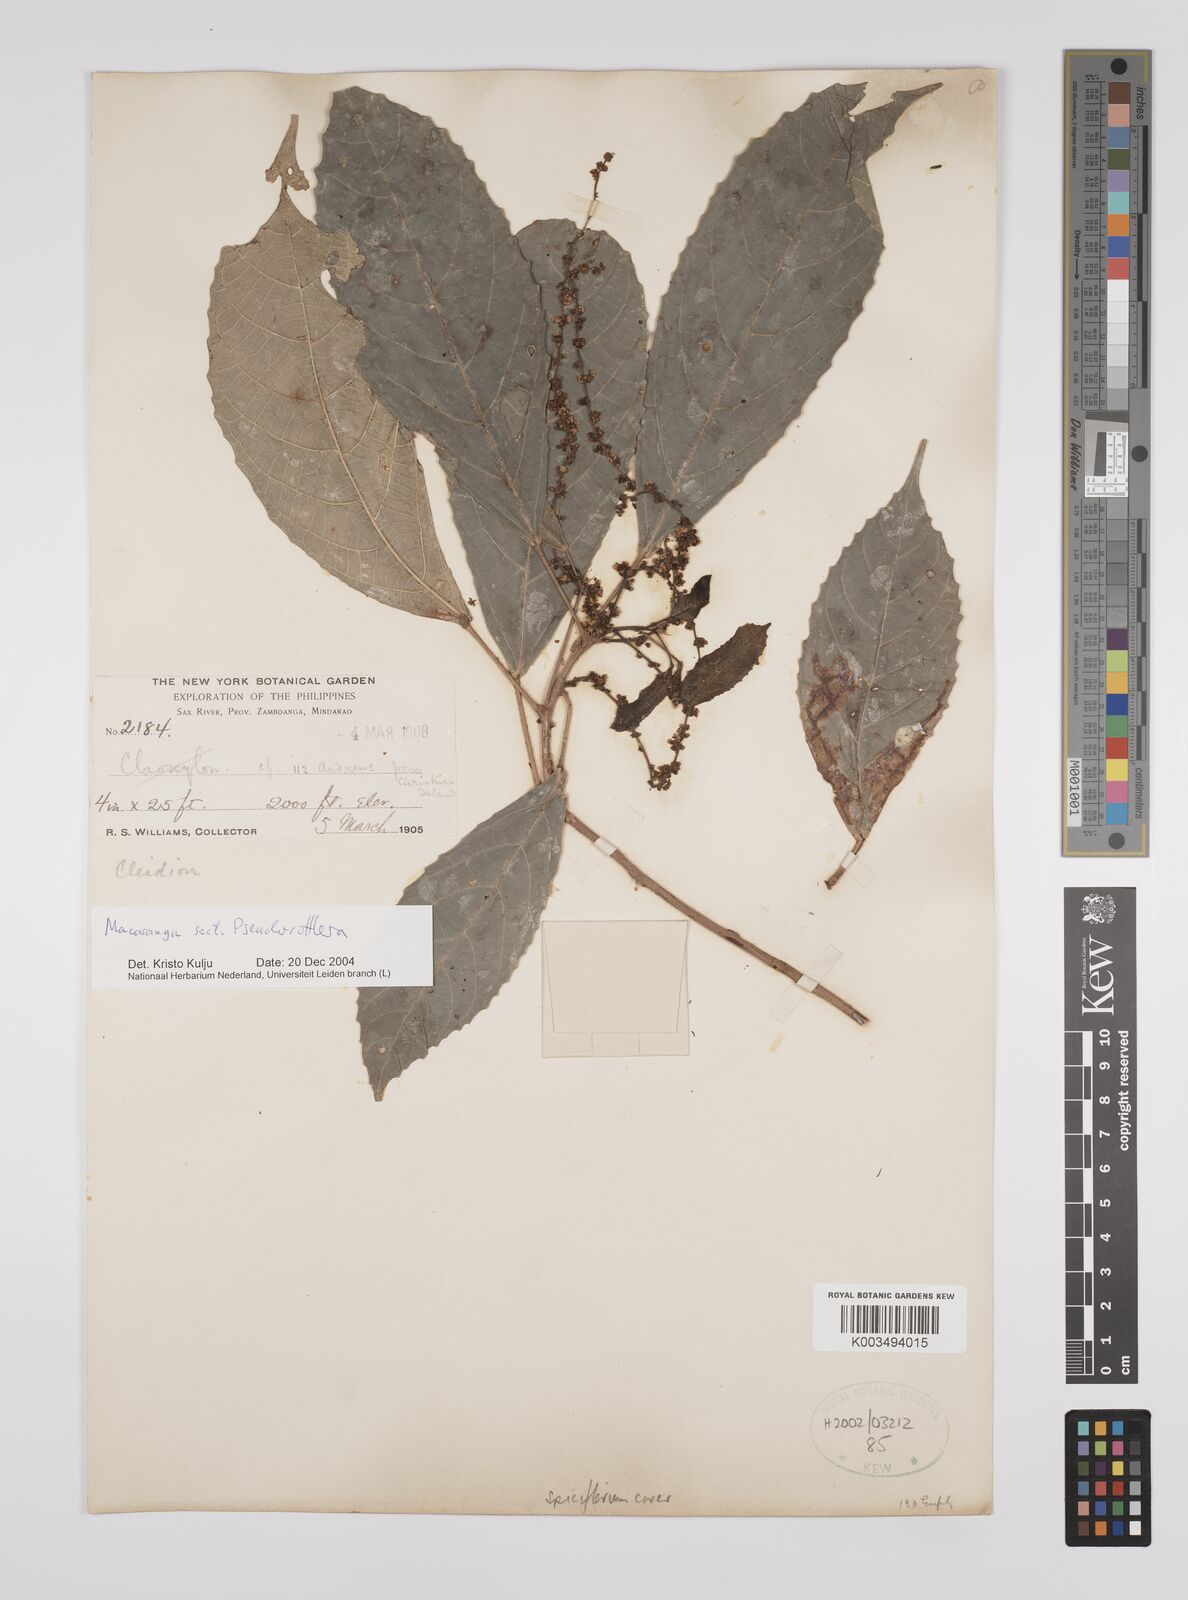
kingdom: Plantae
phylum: Tracheophyta
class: Magnoliopsida
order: Malpighiales
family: Euphorbiaceae
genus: Macaranga
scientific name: Macaranga
